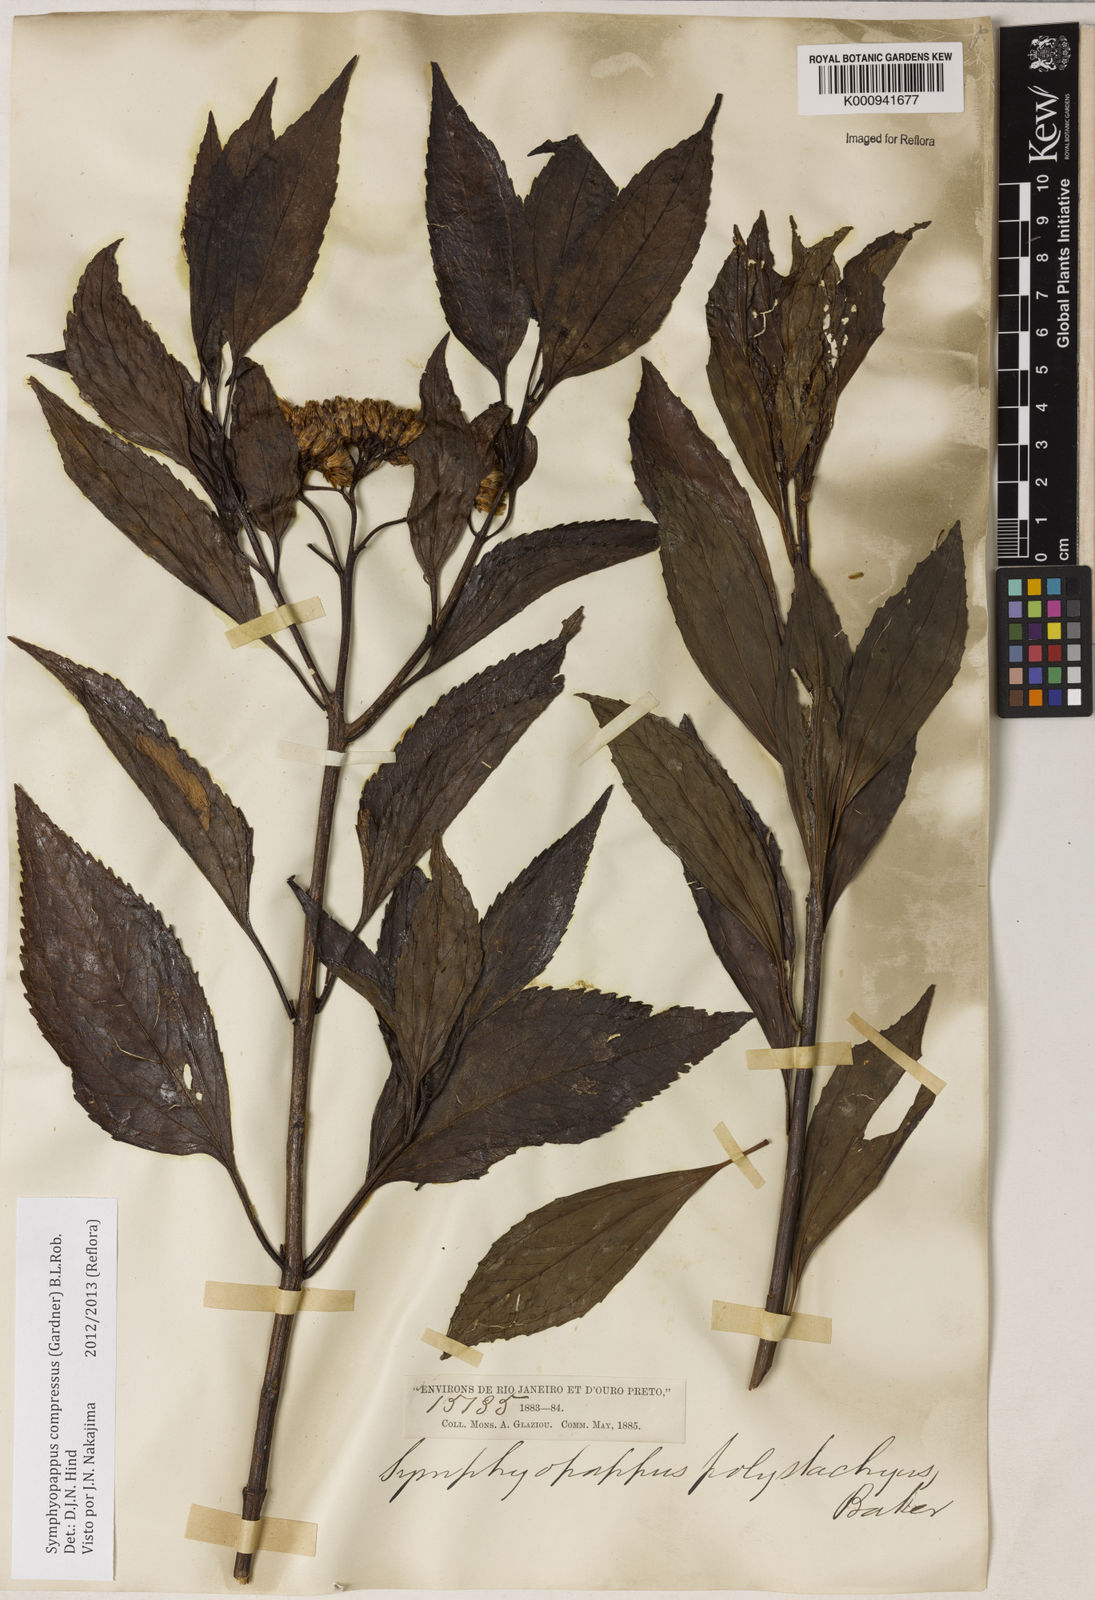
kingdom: Plantae
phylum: Tracheophyta
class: Magnoliopsida
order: Asterales
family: Asteraceae
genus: Symphyopappus
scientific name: Symphyopappus compressus
